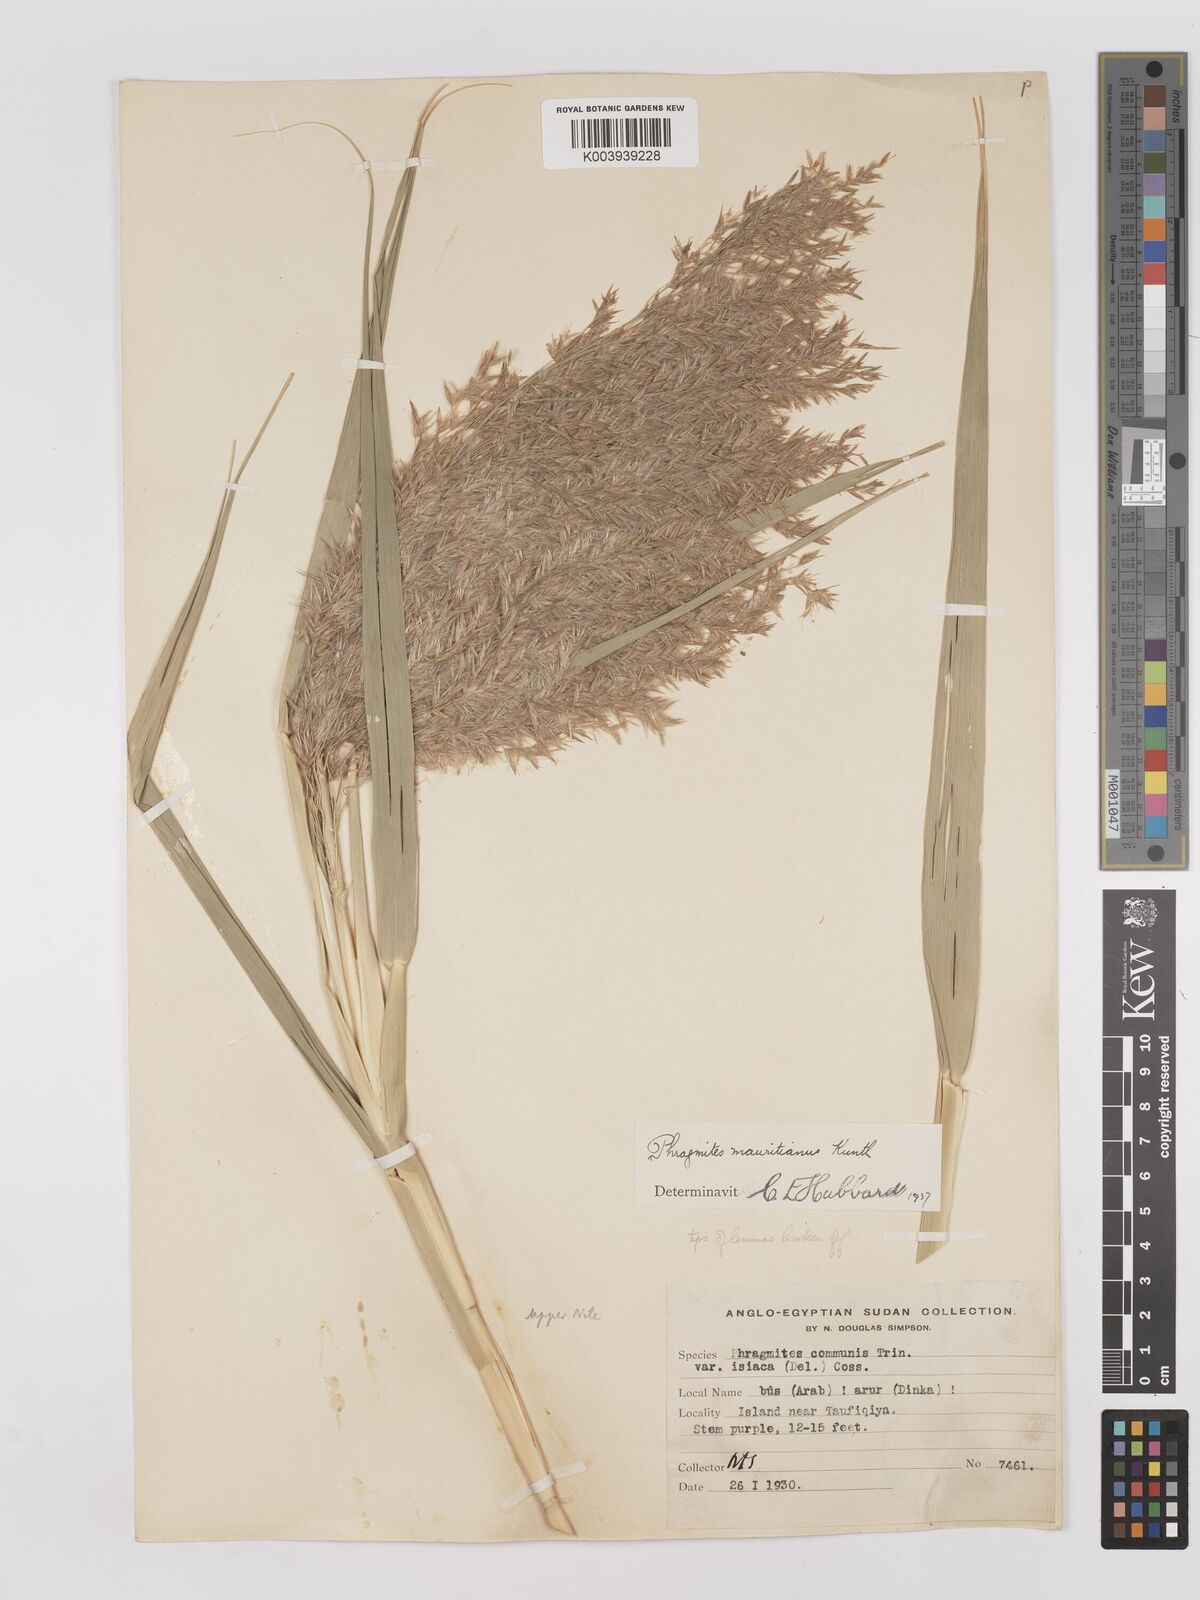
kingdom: Plantae
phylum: Tracheophyta
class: Liliopsida
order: Poales
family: Poaceae
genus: Phragmites
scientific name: Phragmites mauritianus
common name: Reed grass
